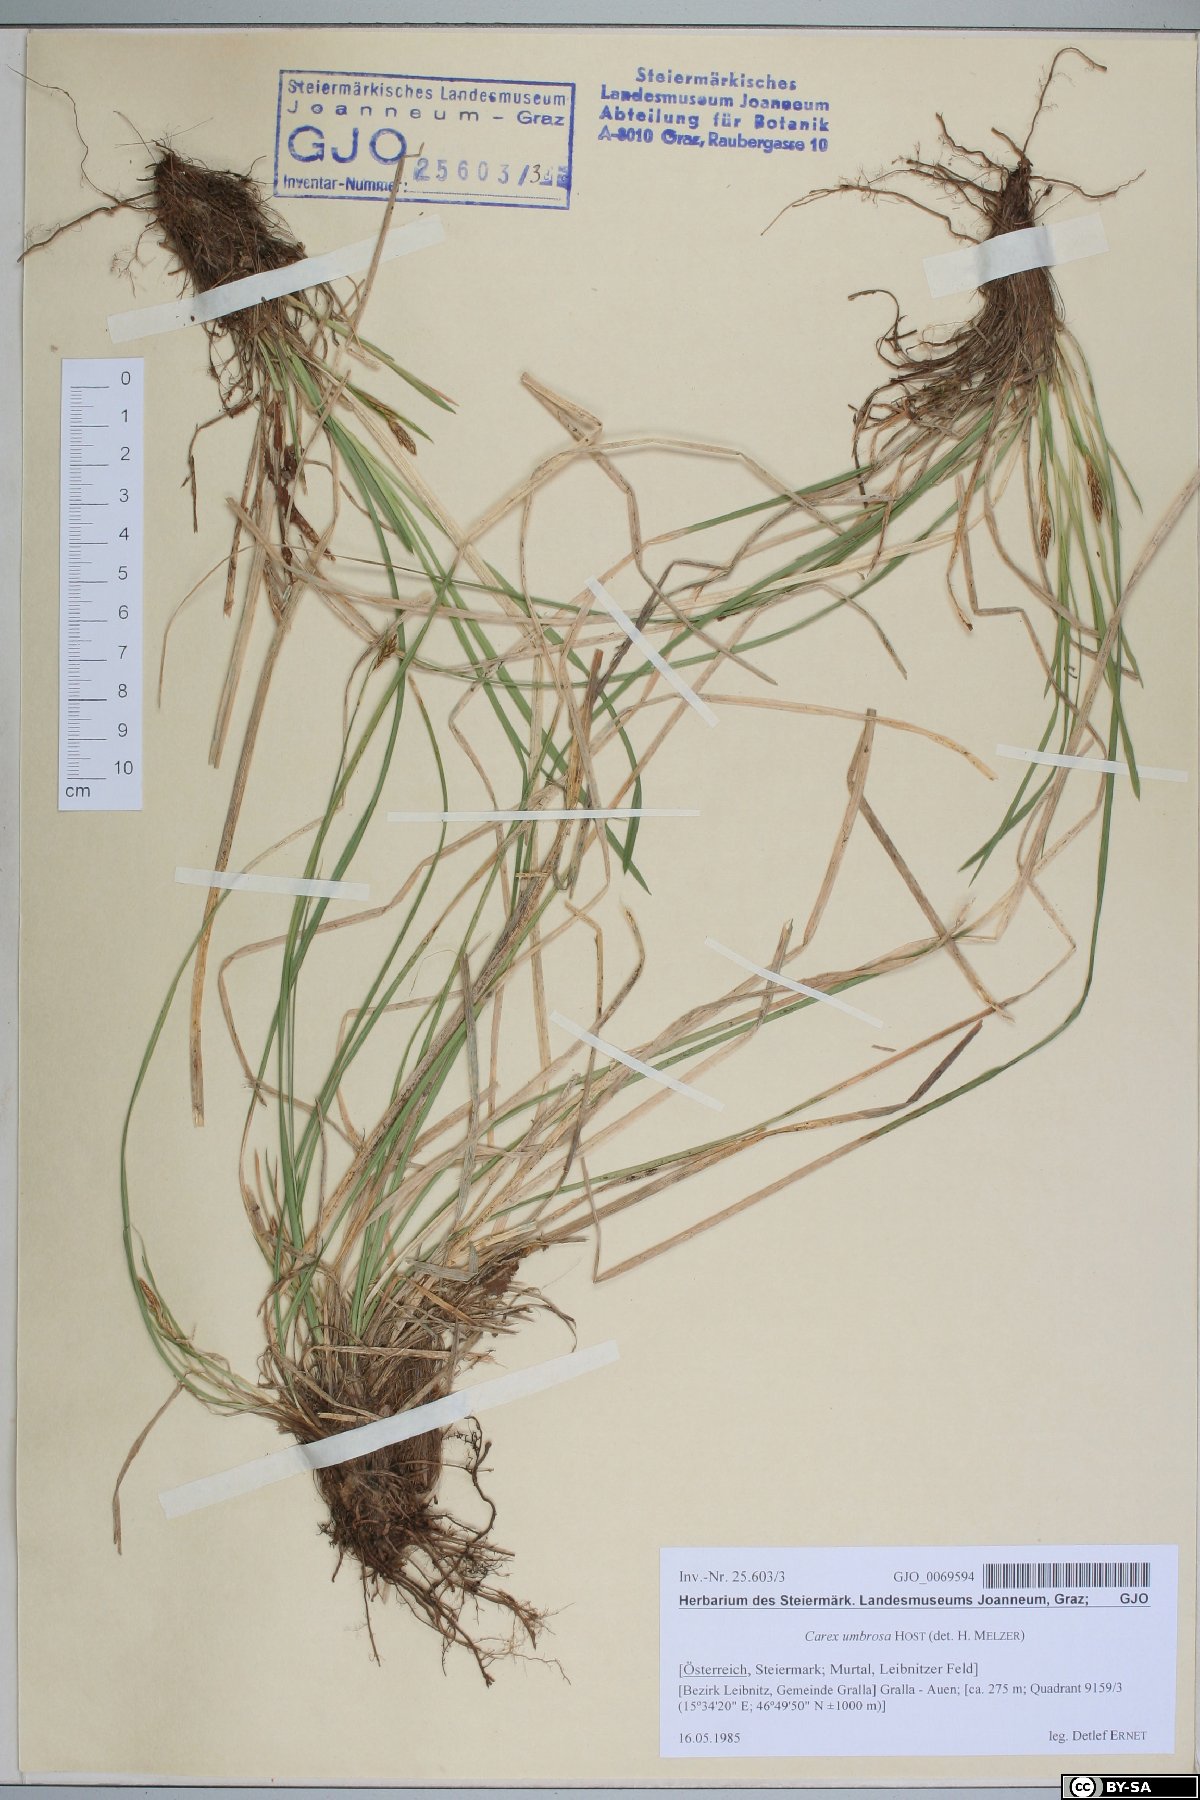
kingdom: Plantae
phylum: Tracheophyta
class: Liliopsida
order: Poales
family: Cyperaceae
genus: Carex
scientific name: Carex umbrosa
